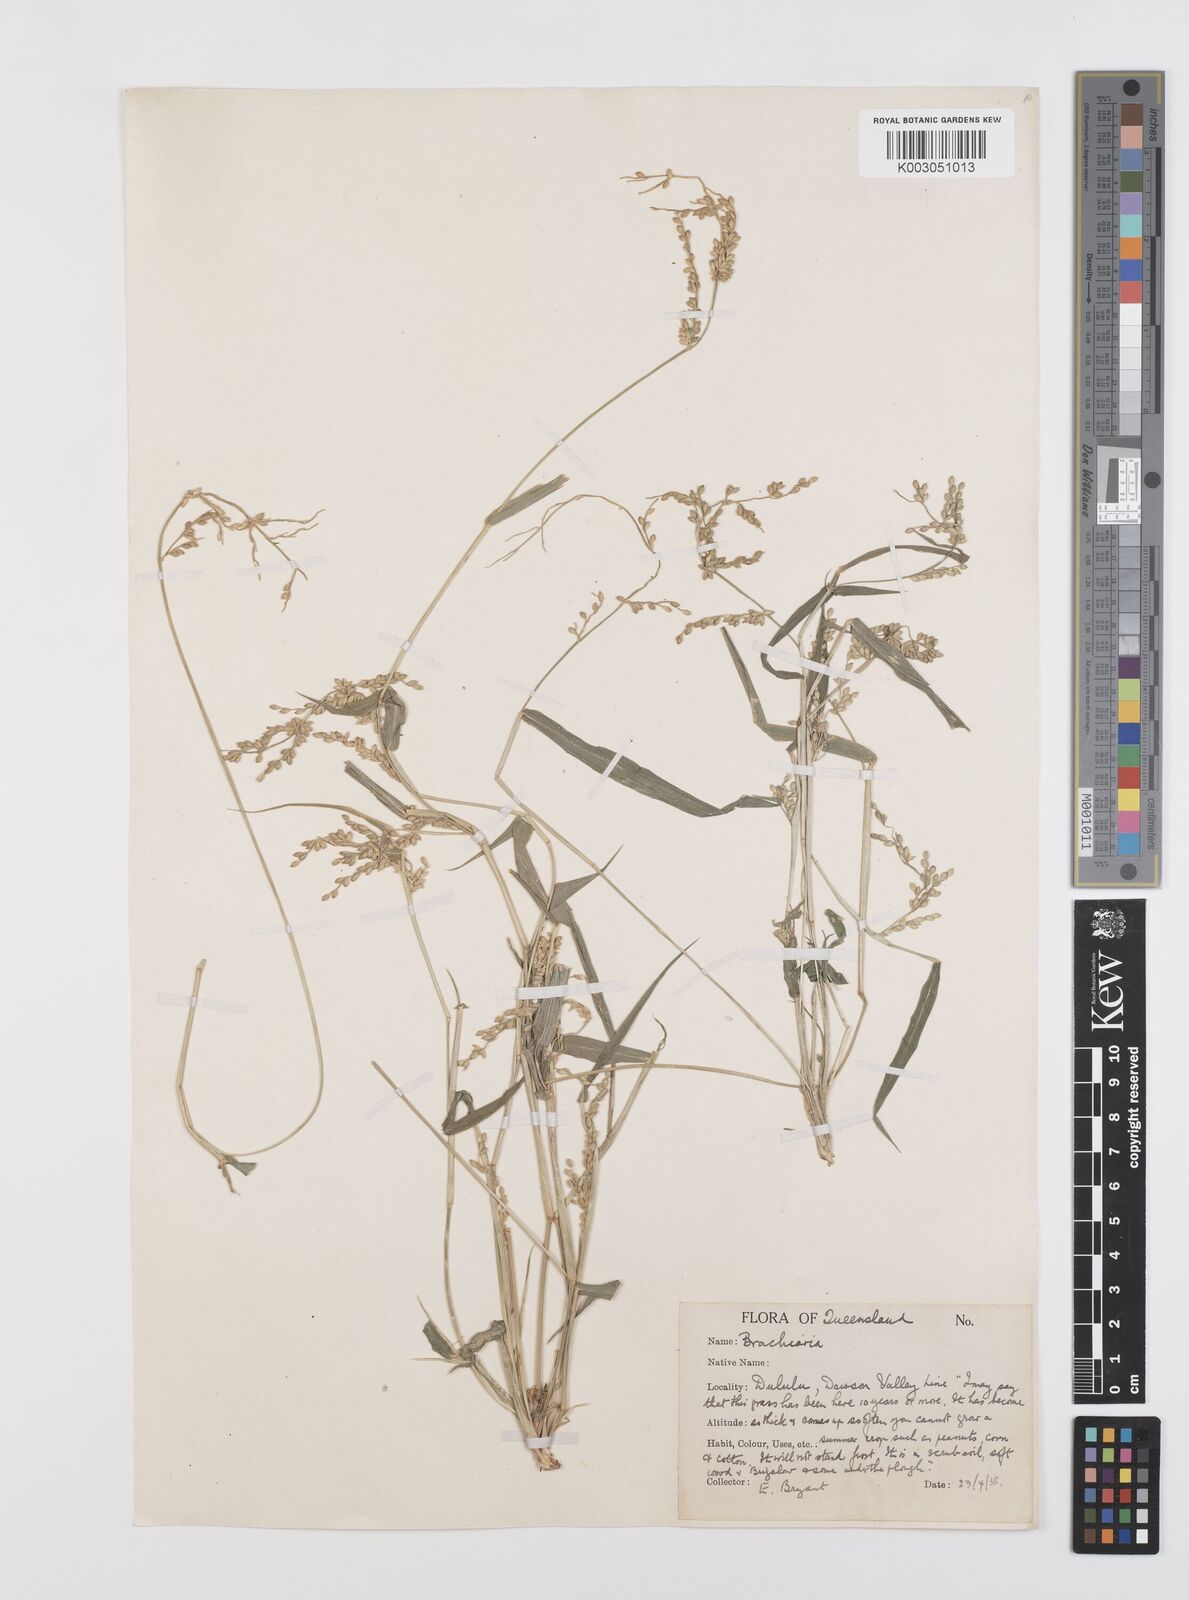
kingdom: Plantae
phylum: Tracheophyta
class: Liliopsida
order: Poales
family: Poaceae
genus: Urochloa
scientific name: Urochloa ramosa
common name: Browntop millet
